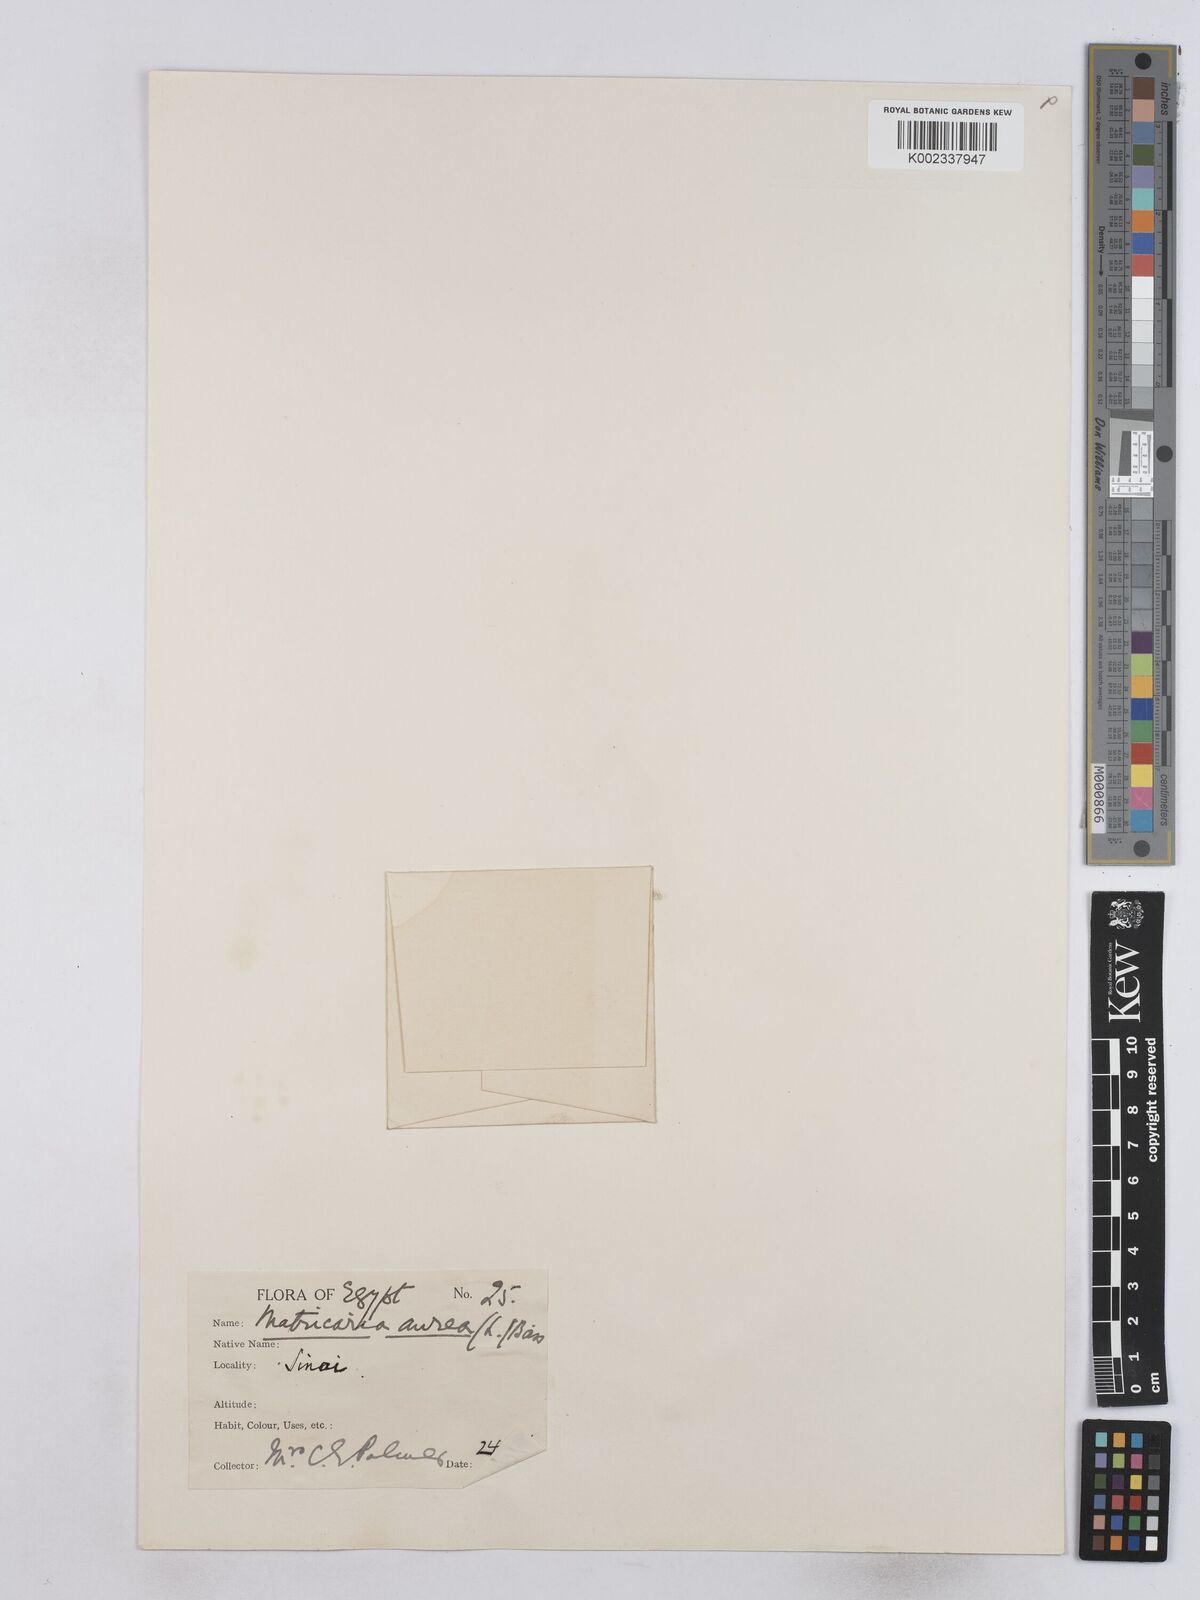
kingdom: Plantae
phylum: Tracheophyta
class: Magnoliopsida
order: Asterales
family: Asteraceae
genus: Matricaria
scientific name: Matricaria
